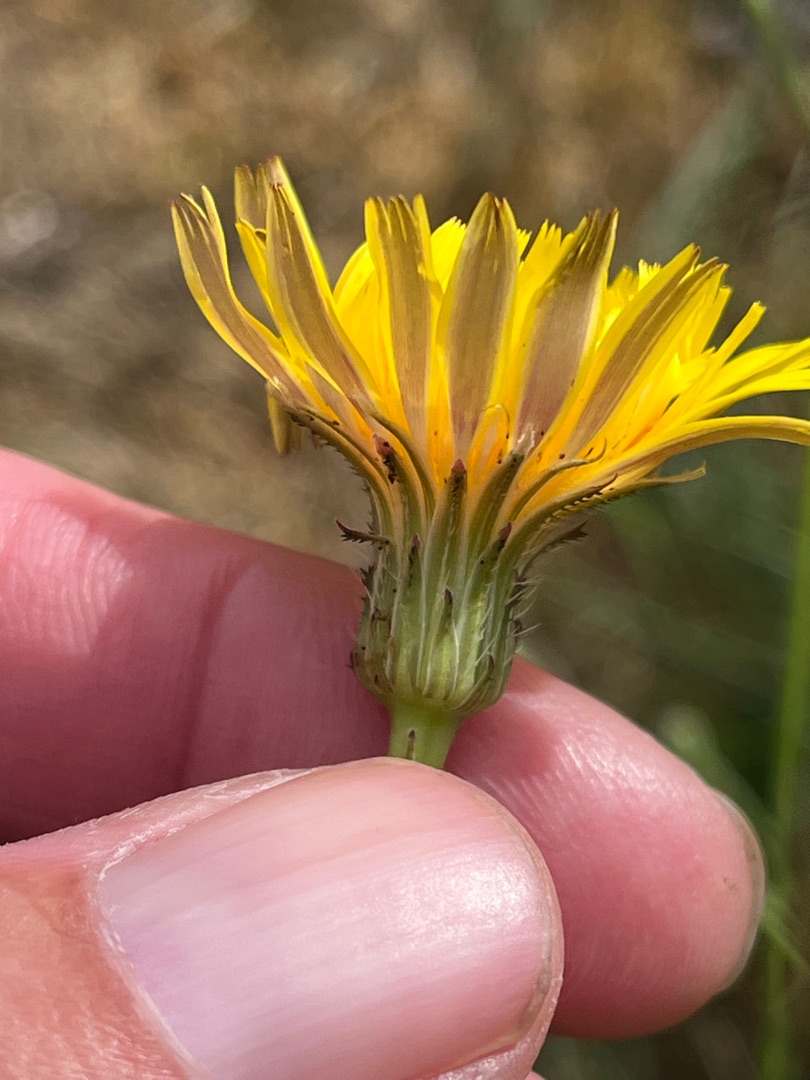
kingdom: Plantae
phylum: Tracheophyta
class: Magnoliopsida
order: Asterales
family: Asteraceae
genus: Hypochaeris
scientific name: Hypochaeris radicata
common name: Almindelig kongepen
